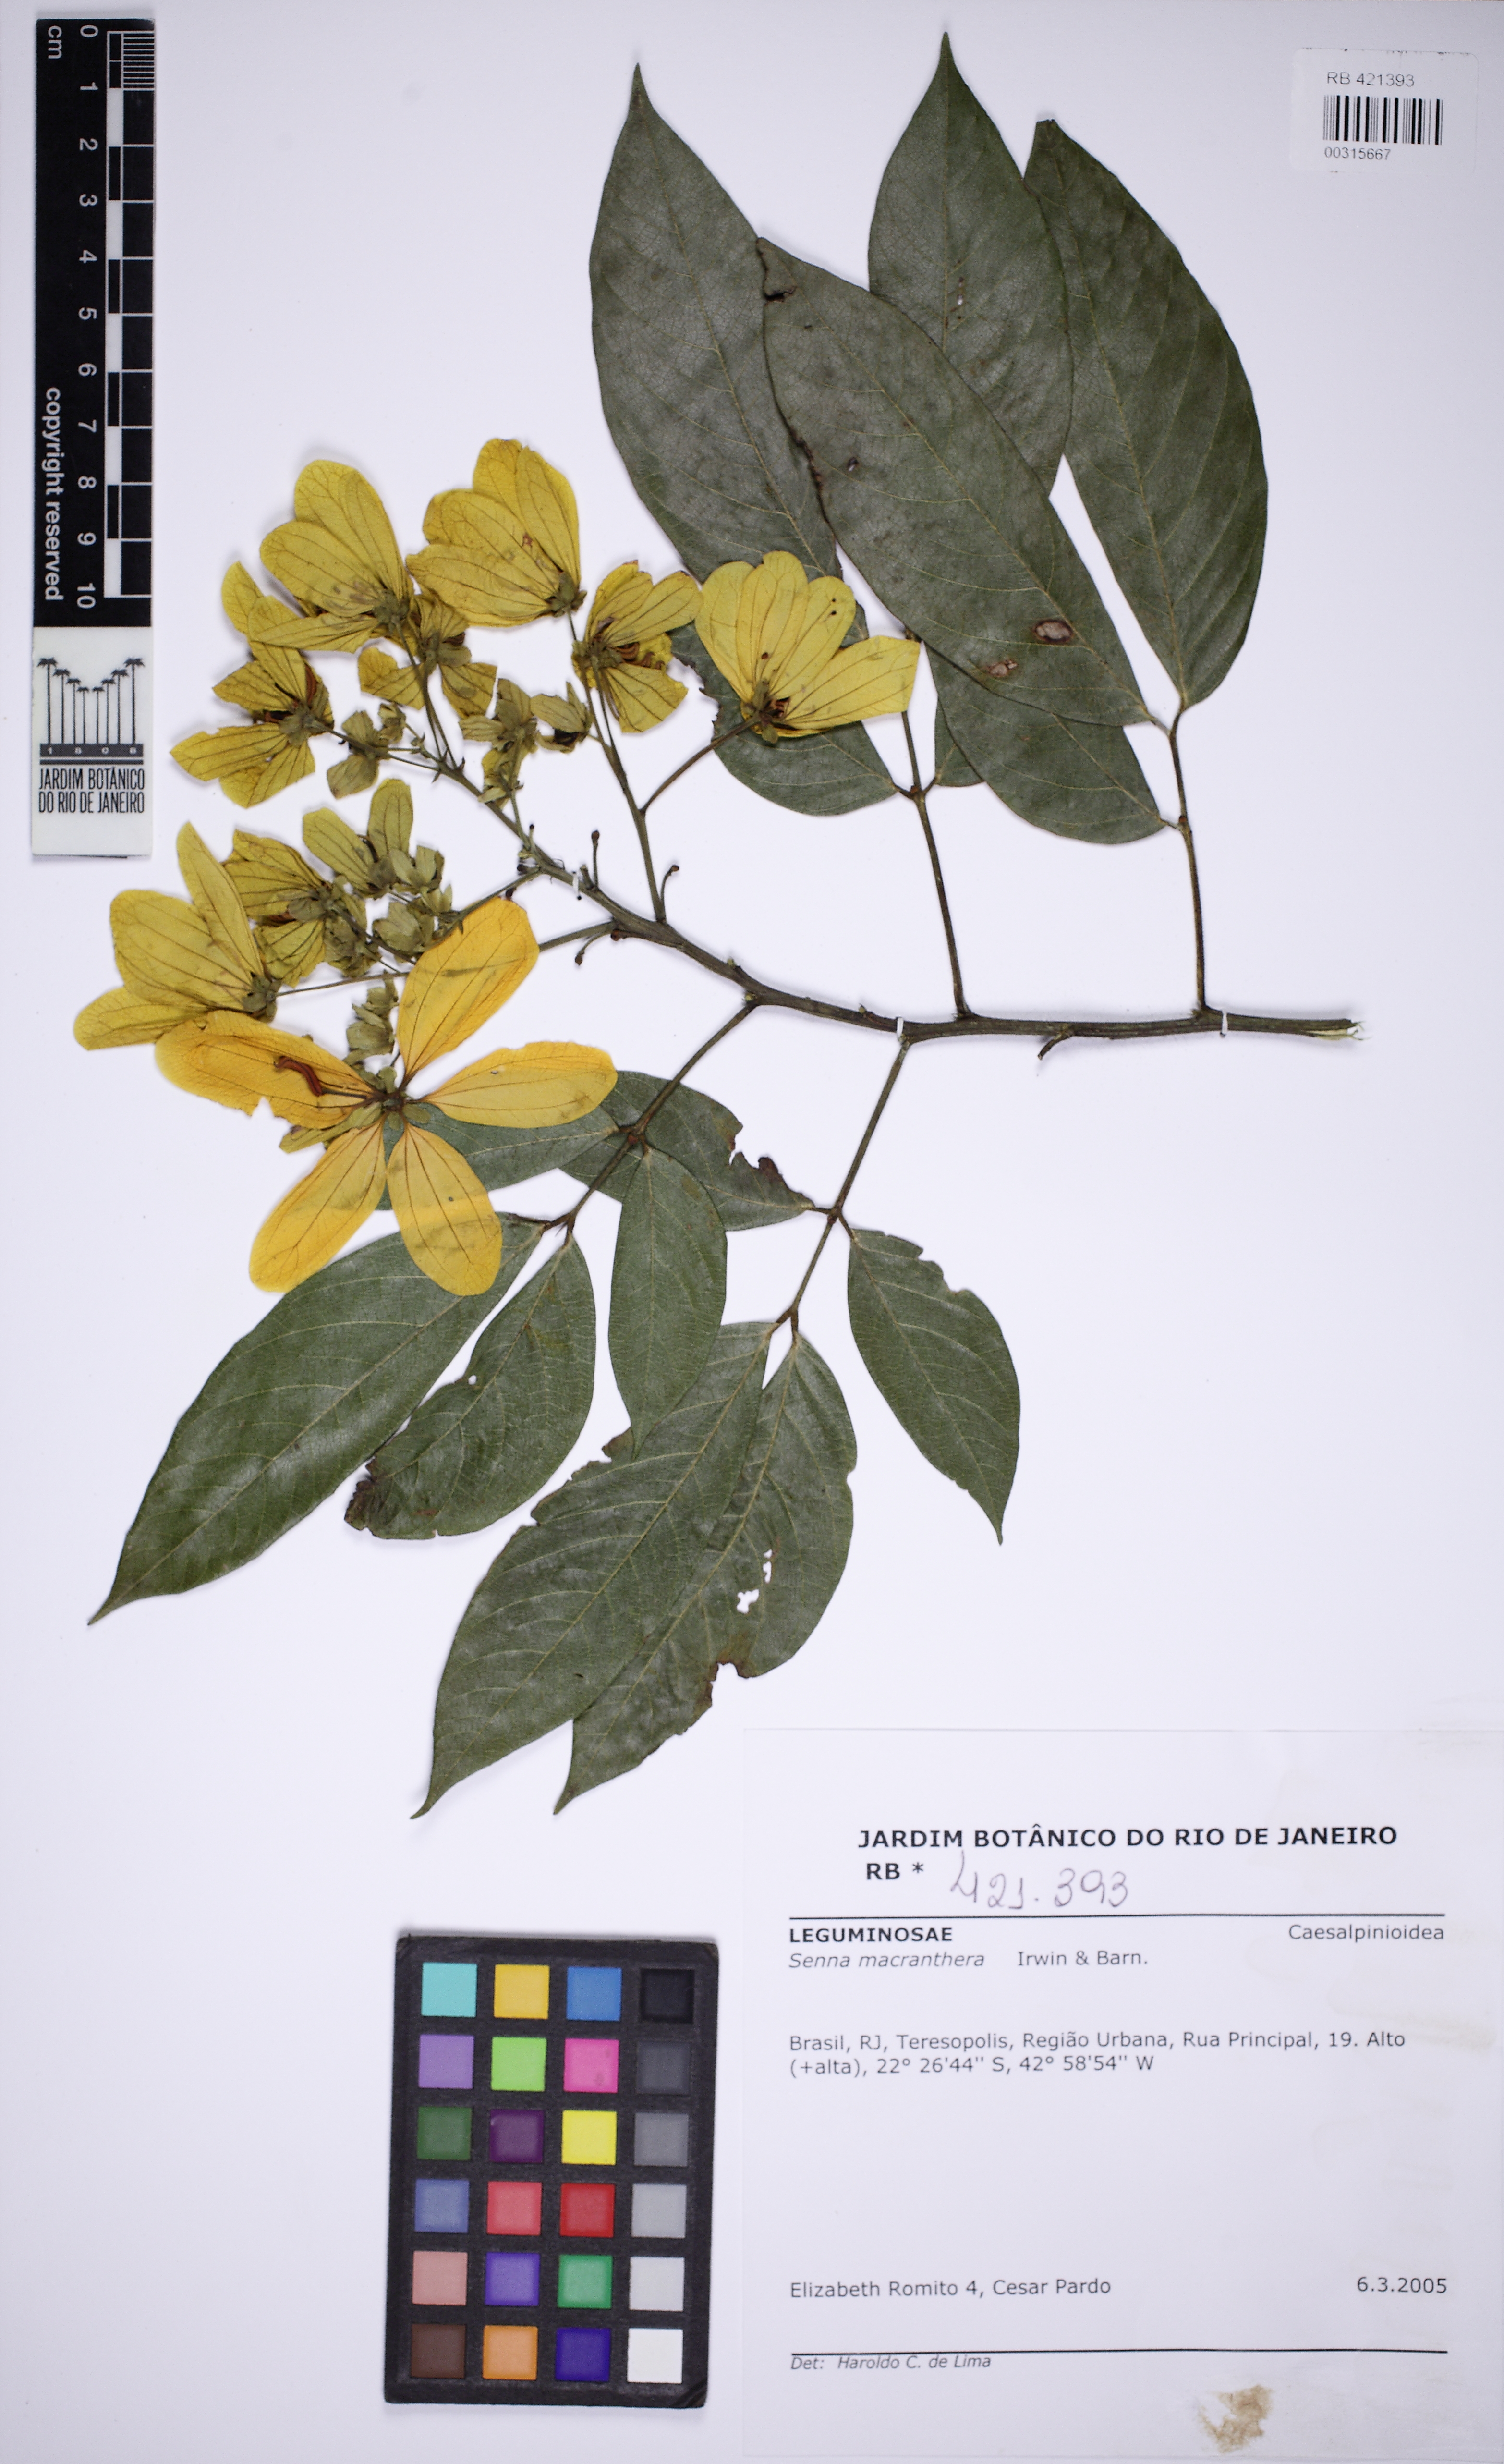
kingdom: Plantae
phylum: Tracheophyta
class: Magnoliopsida
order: Fabales
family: Fabaceae
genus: Senna
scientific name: Senna macranthera
